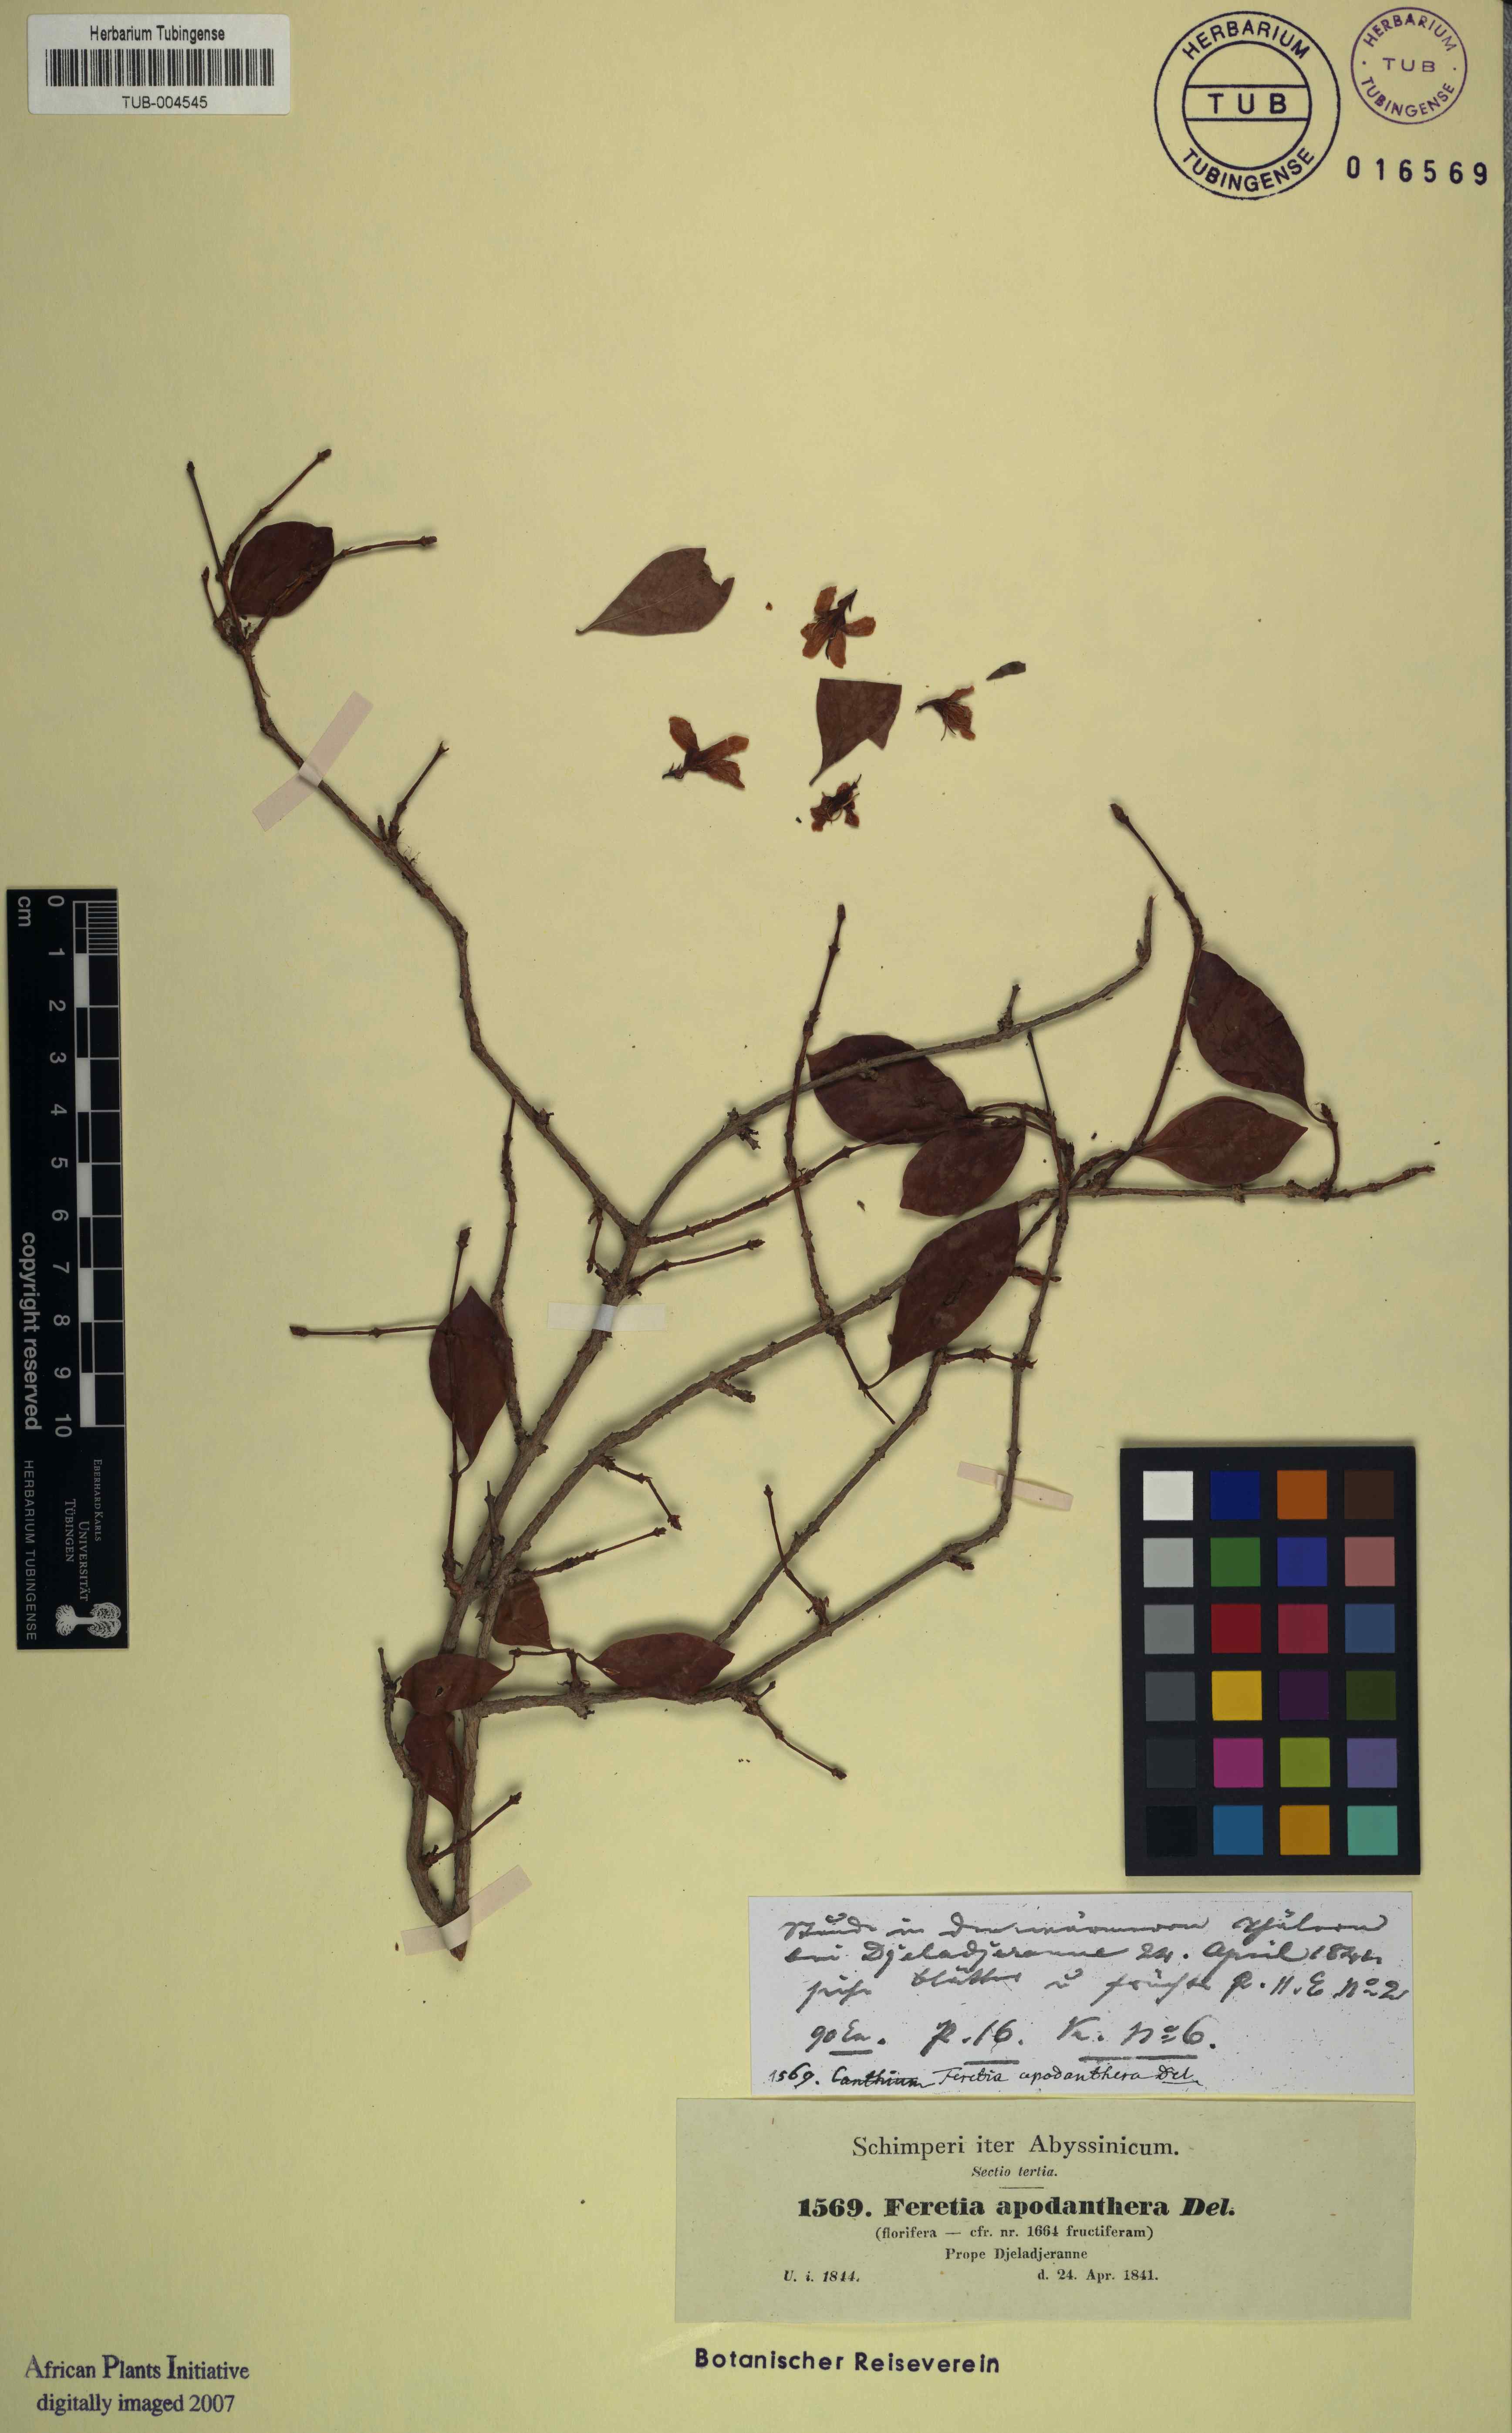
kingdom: Plantae
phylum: Tracheophyta
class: Magnoliopsida
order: Gentianales
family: Rubiaceae
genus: Feretia
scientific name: Feretia apodanthera
